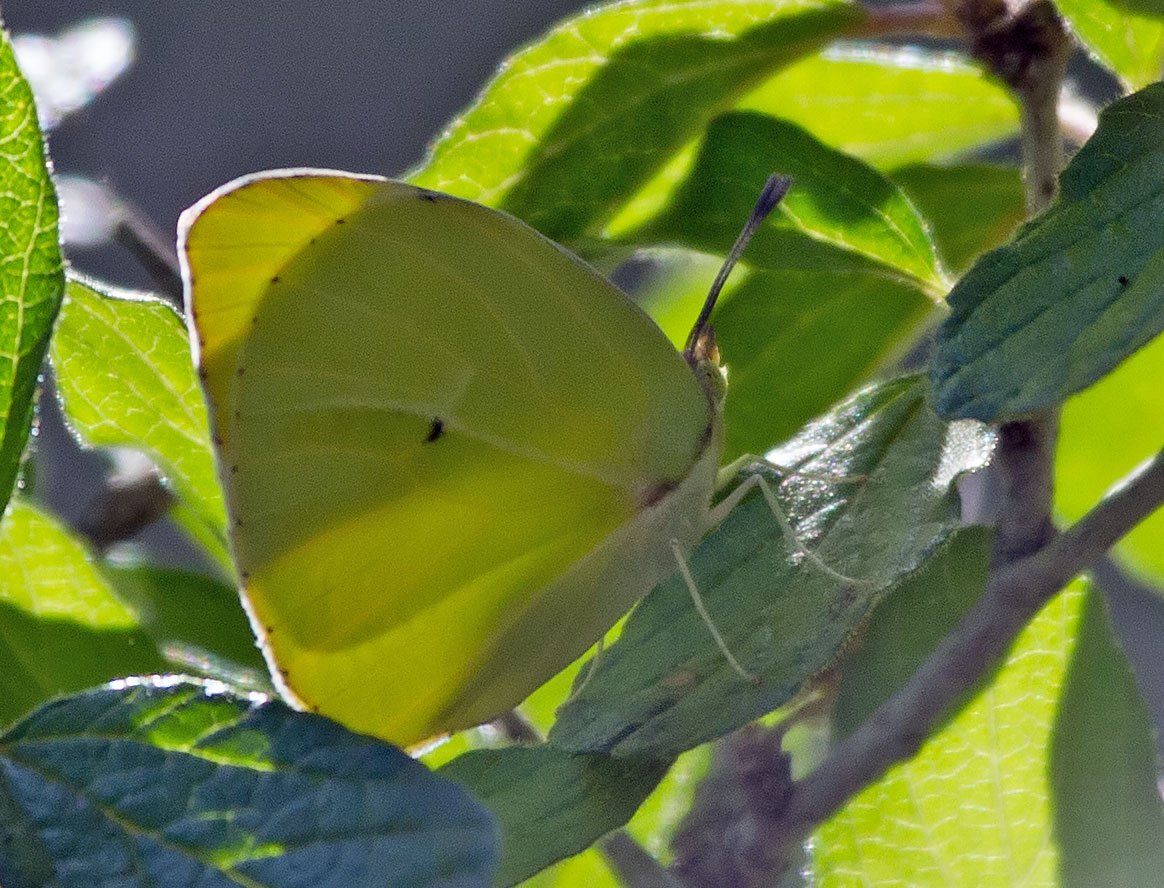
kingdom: Animalia
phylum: Arthropoda
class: Insecta
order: Lepidoptera
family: Pieridae
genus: Kricogonia
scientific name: Kricogonia lyside
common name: Lyside Sulphur
